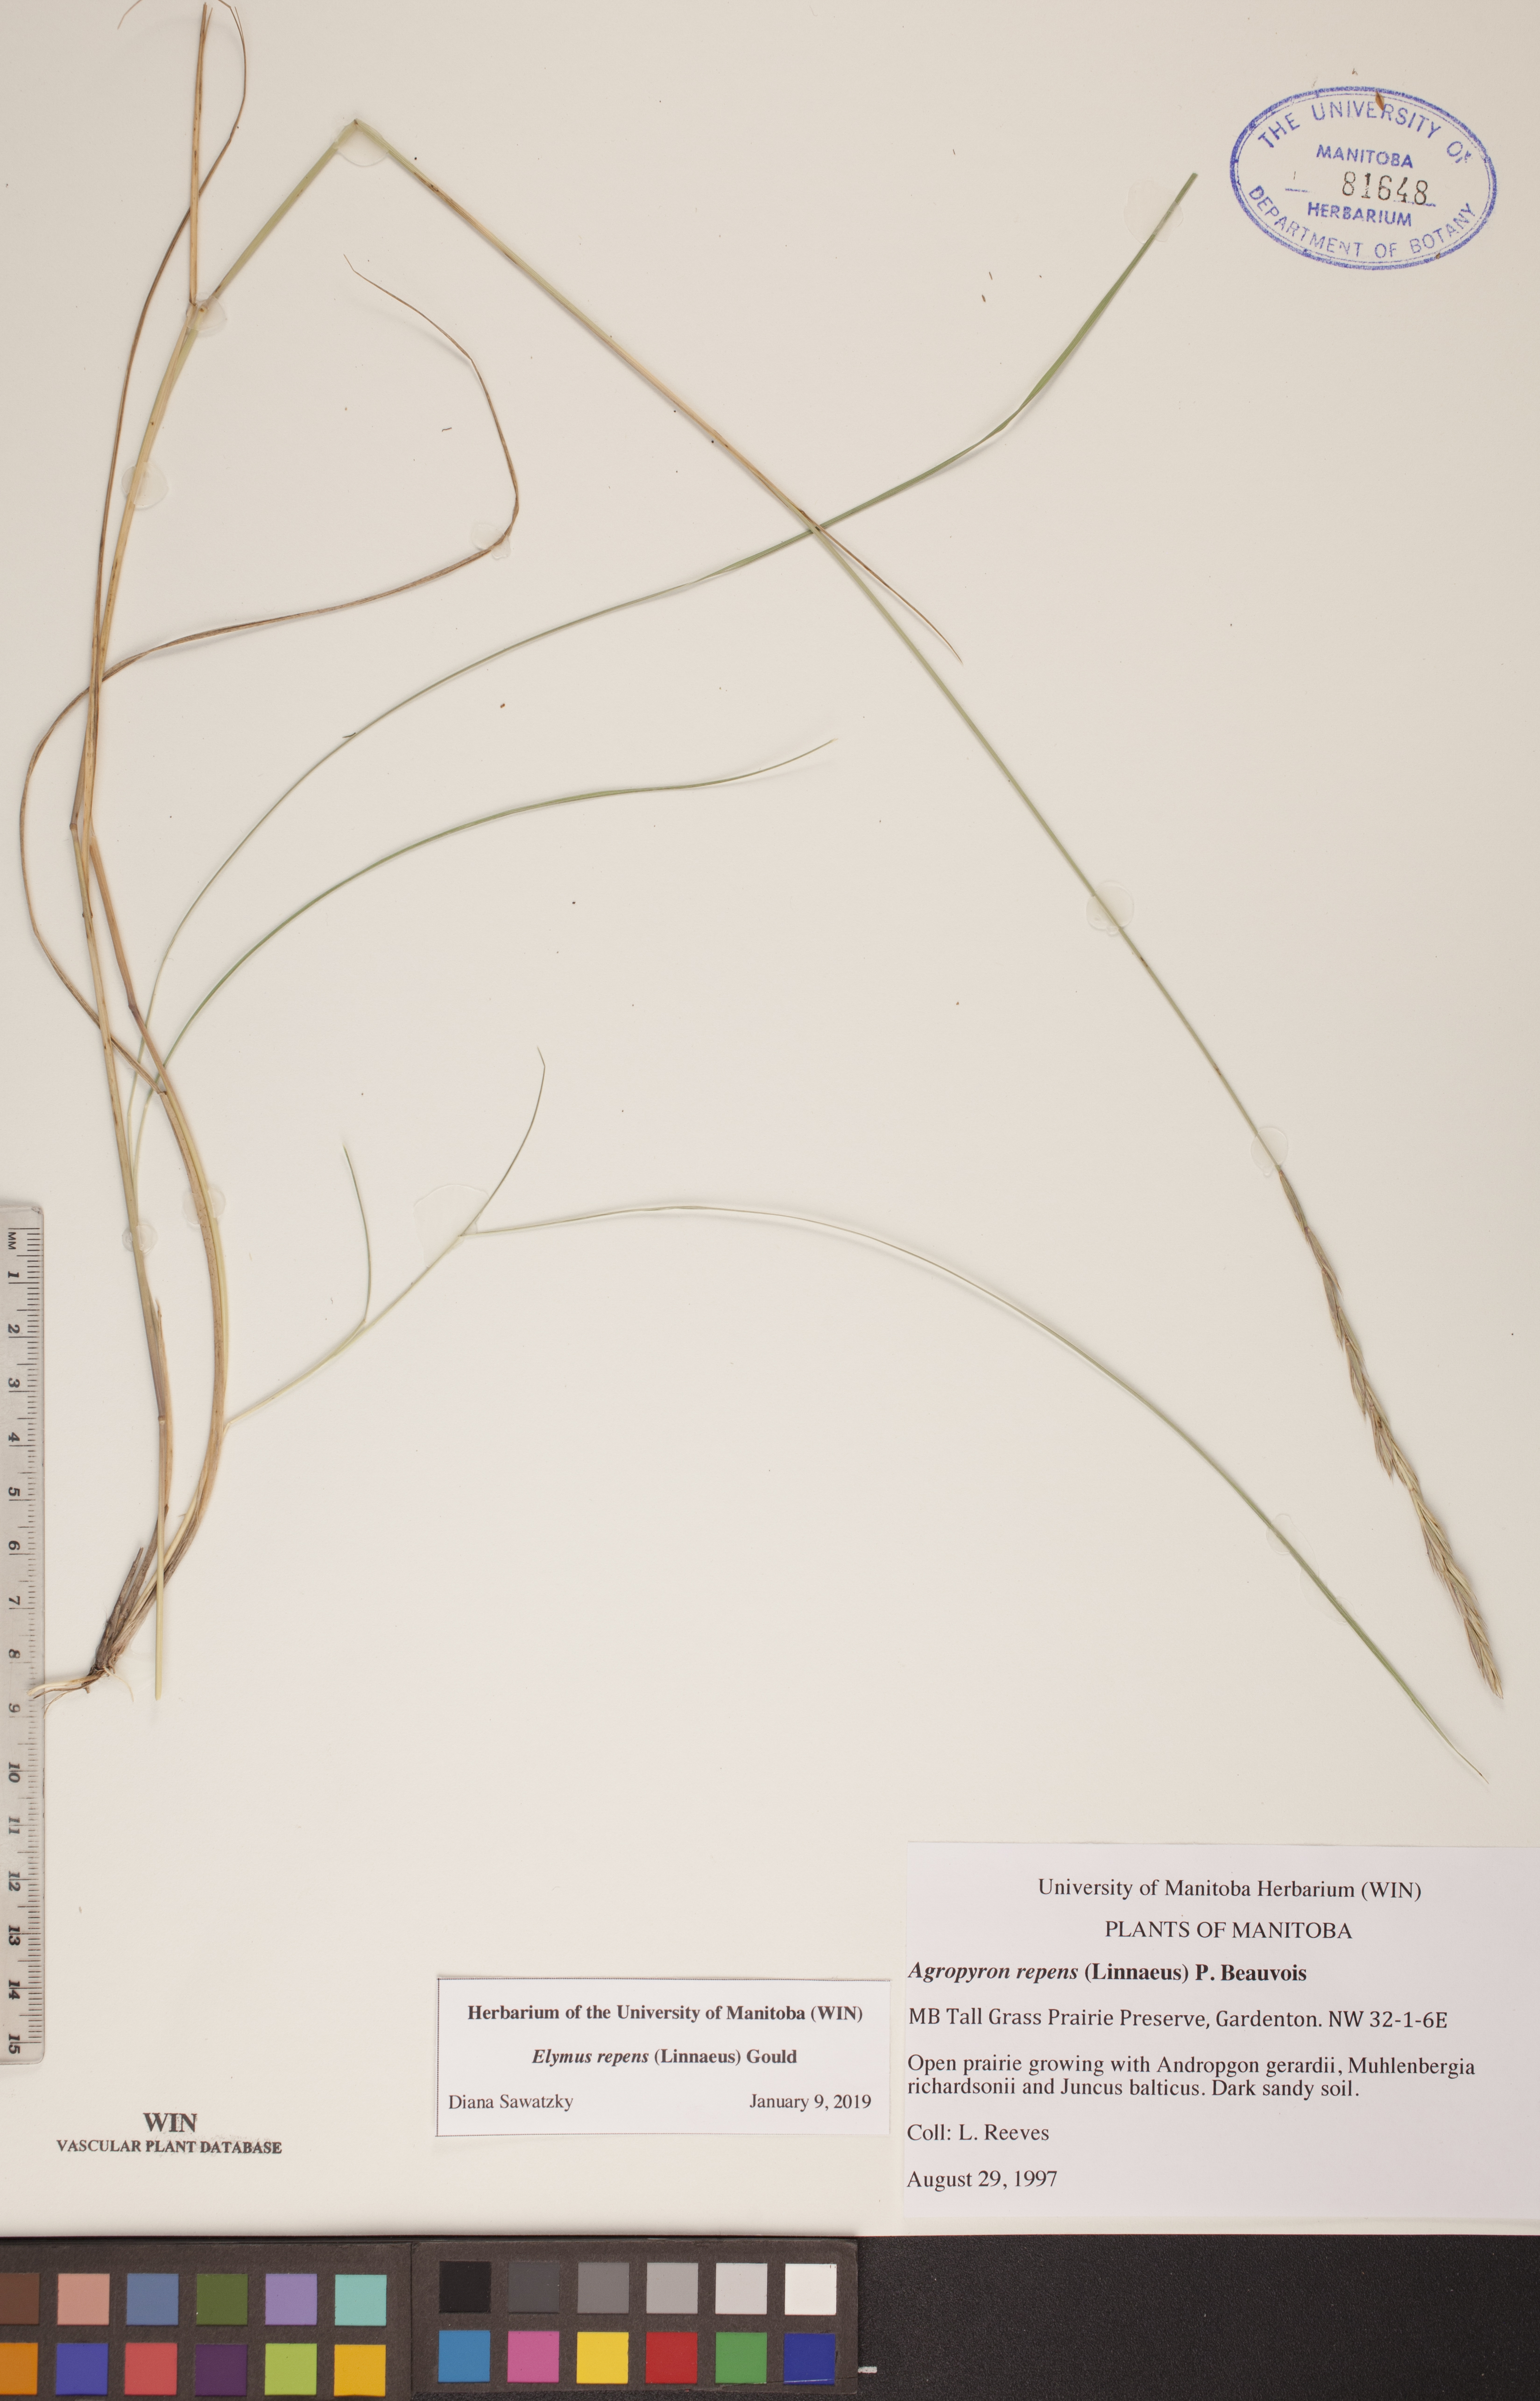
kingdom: Plantae
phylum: Tracheophyta
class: Liliopsida
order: Poales
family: Poaceae
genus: Elymus
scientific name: Elymus repens
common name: Quackgrass
